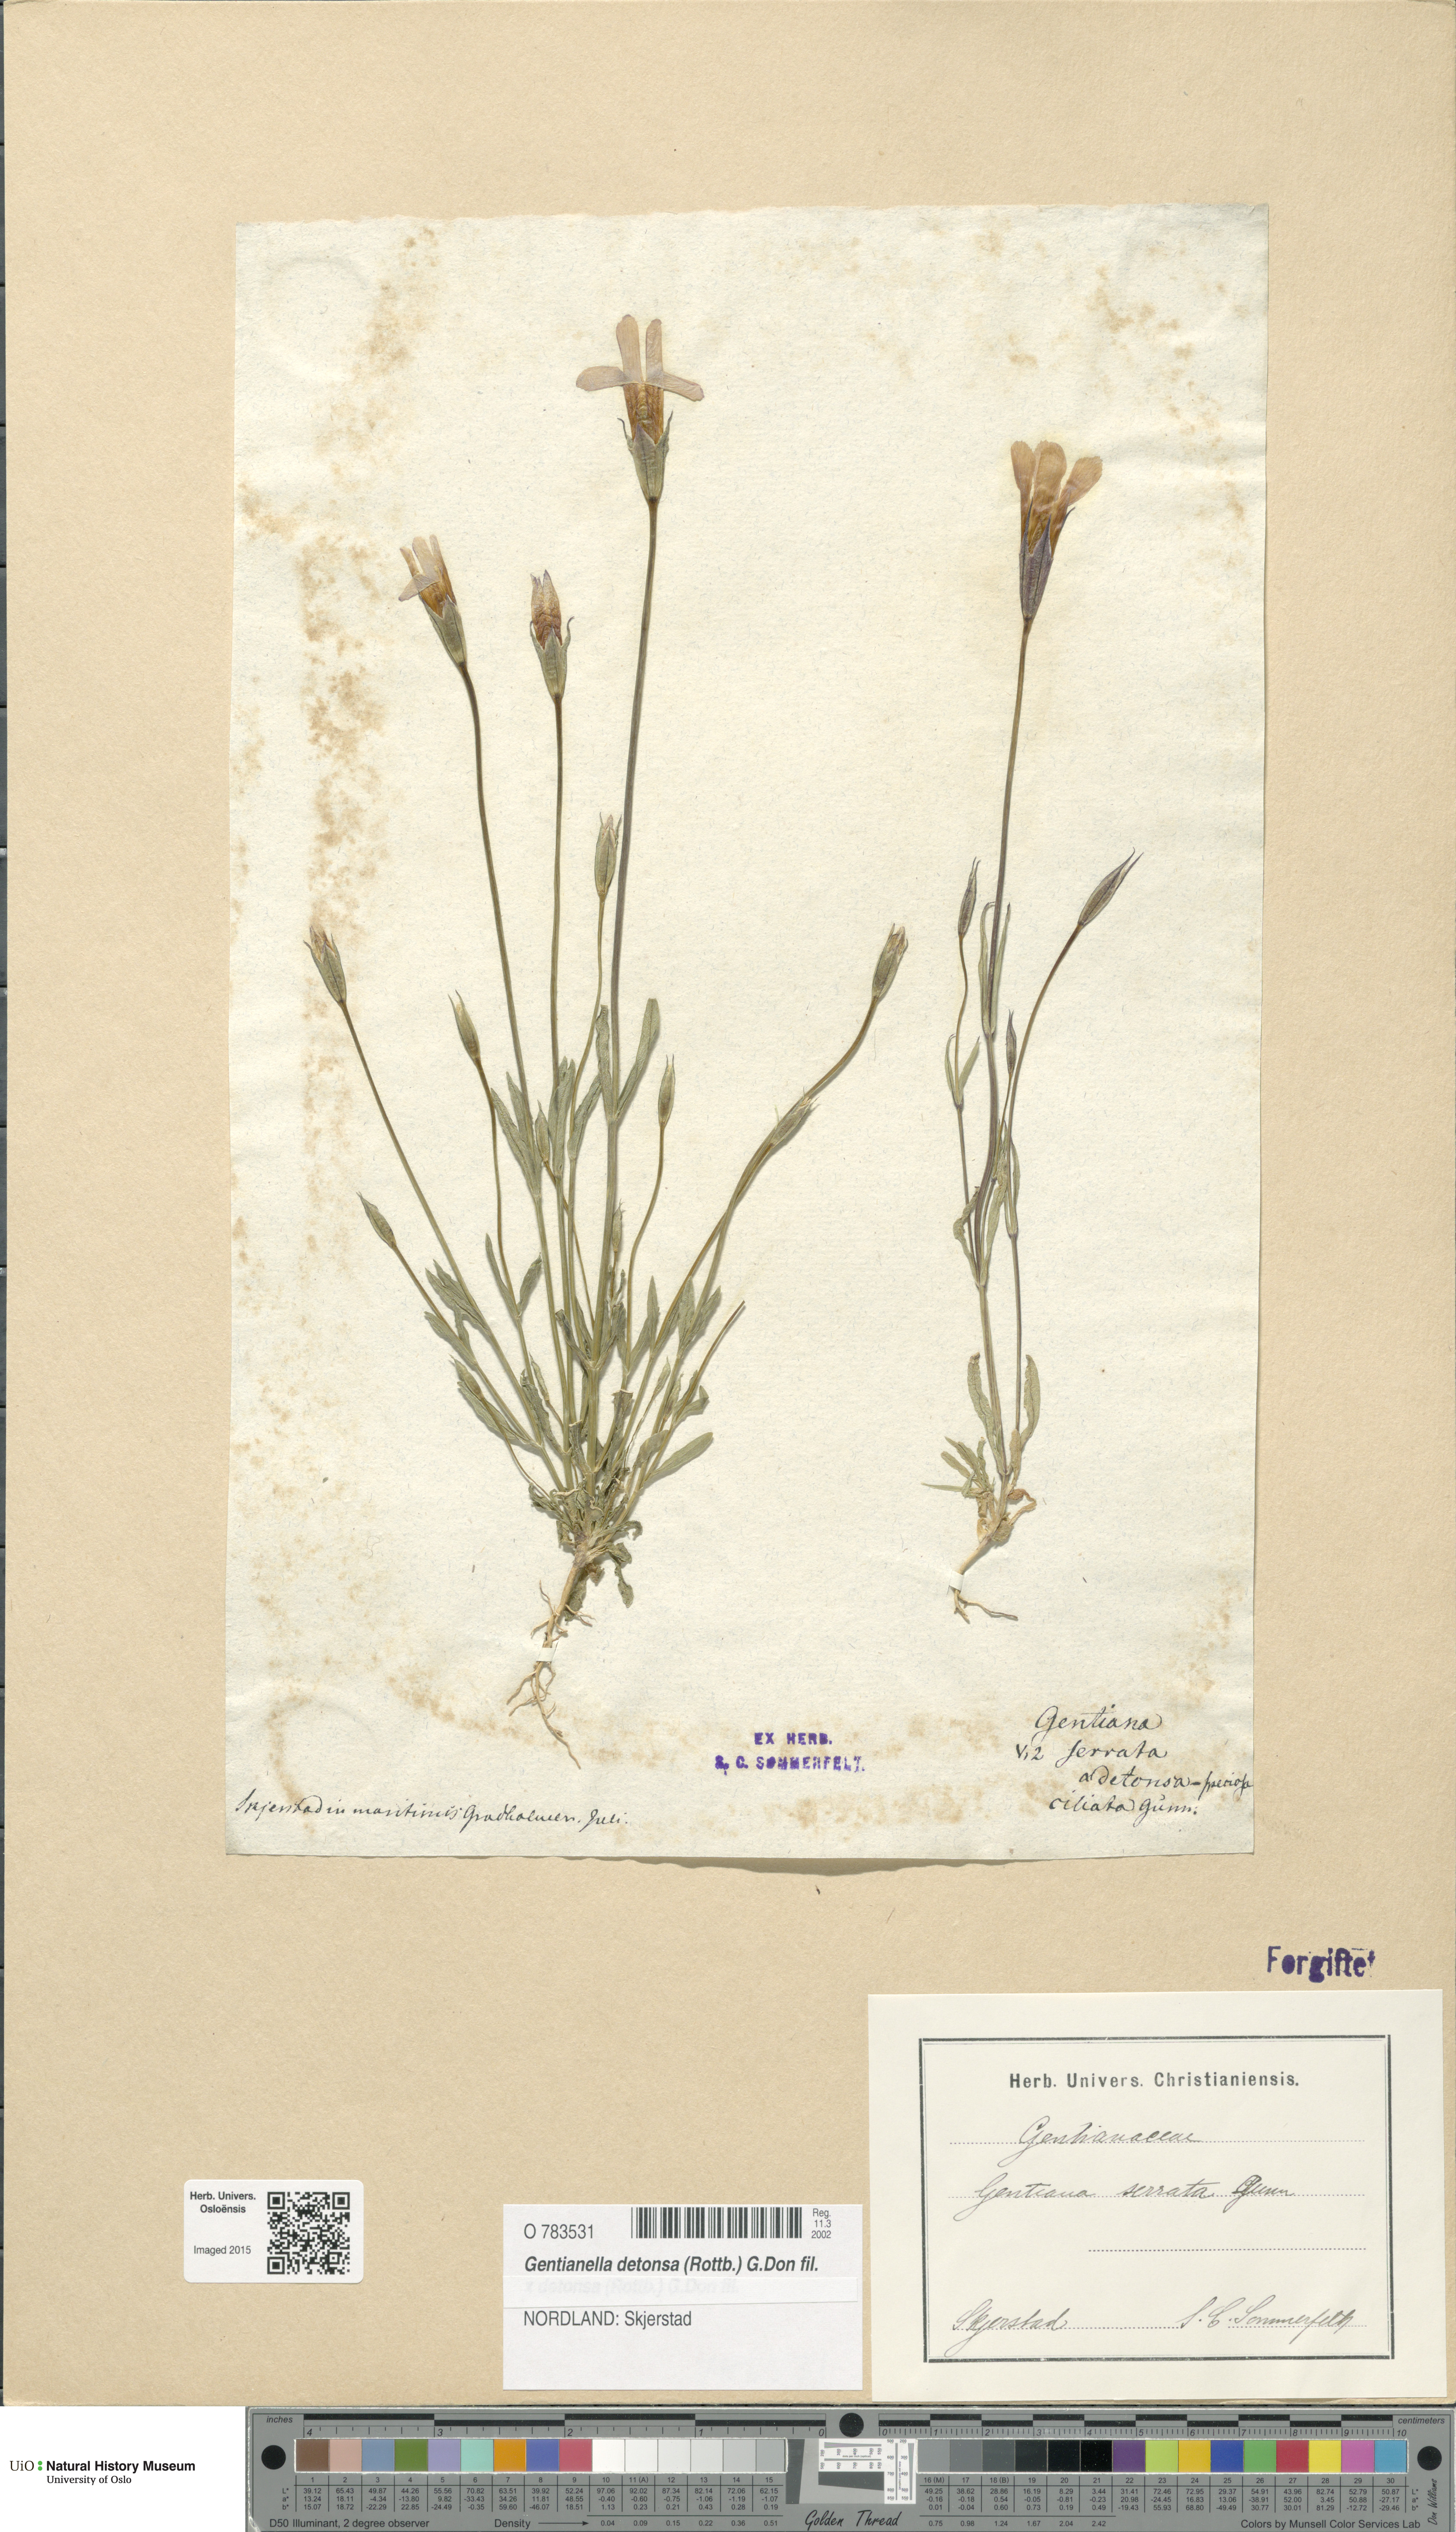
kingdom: Plantae
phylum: Tracheophyta
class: Magnoliopsida
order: Gentianales
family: Gentianaceae
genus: Gentianopsis
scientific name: Gentianopsis detonsa
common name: Fringed-gentian
